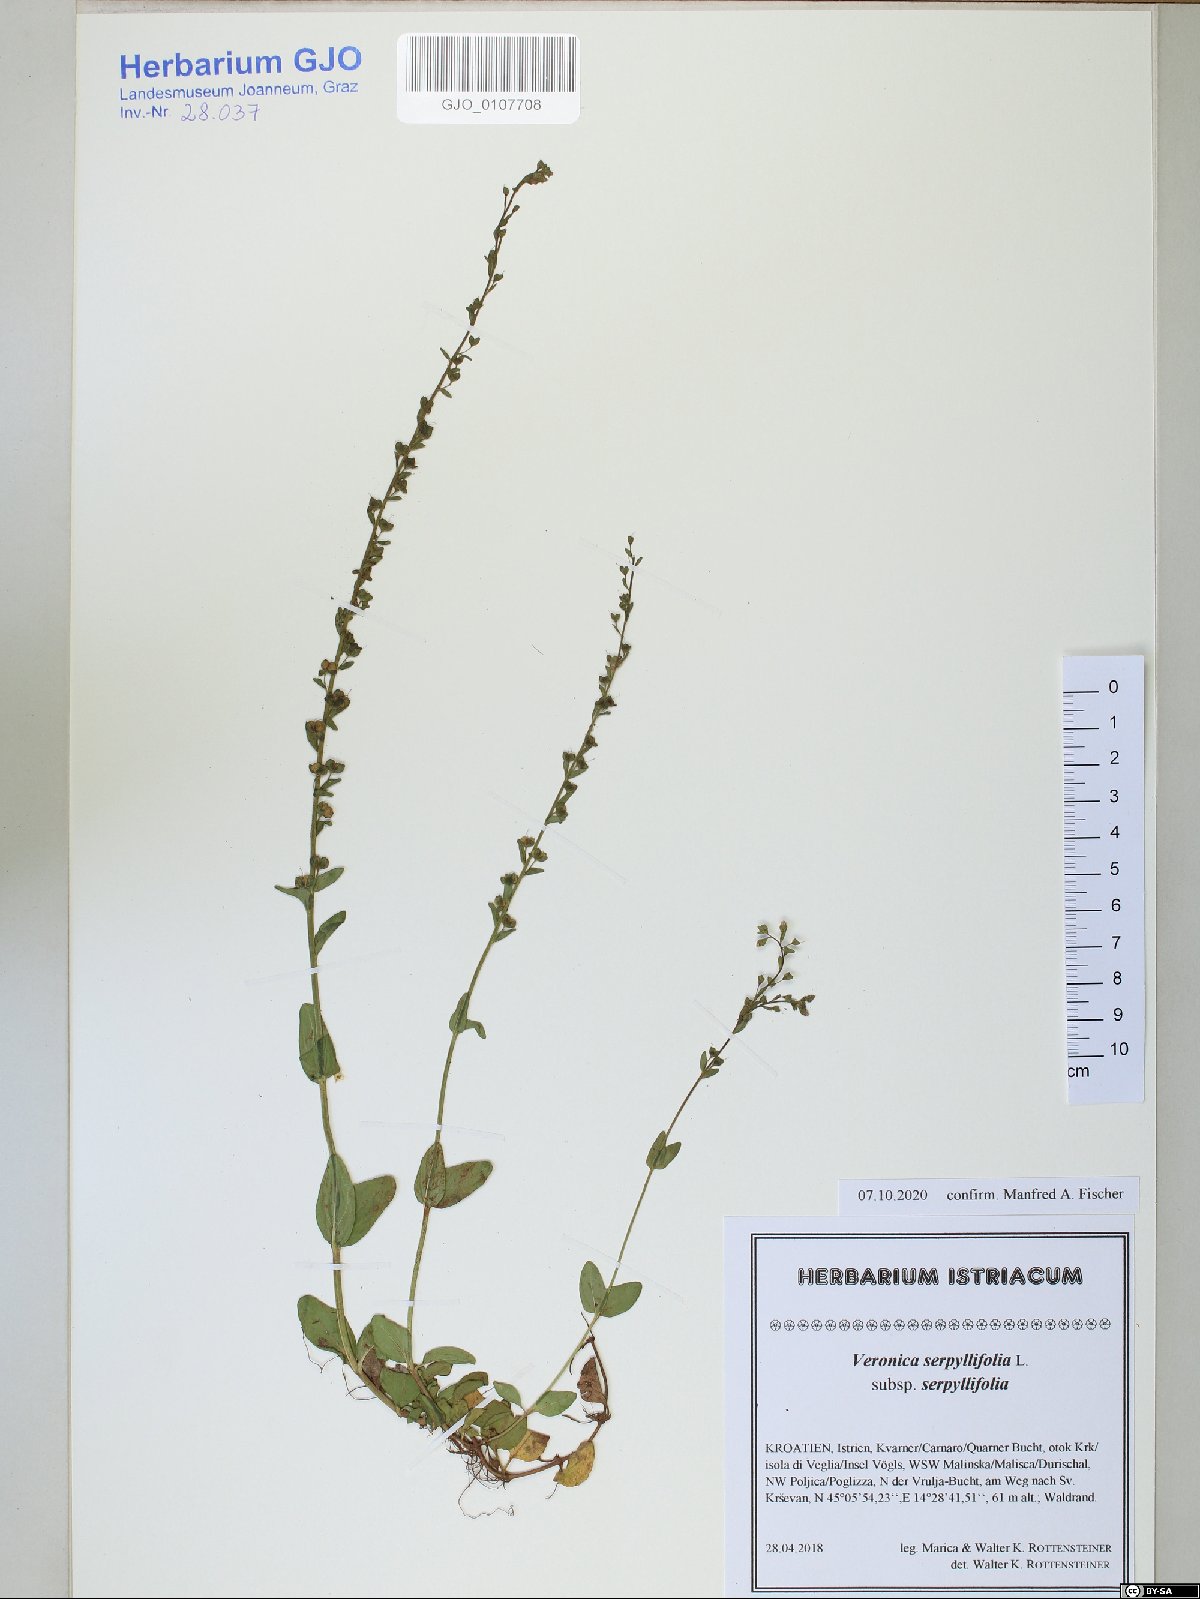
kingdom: Plantae
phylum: Tracheophyta
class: Magnoliopsida
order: Lamiales
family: Plantaginaceae
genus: Veronica
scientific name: Veronica serpyllifolia
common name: Thyme-leaved speedwell
